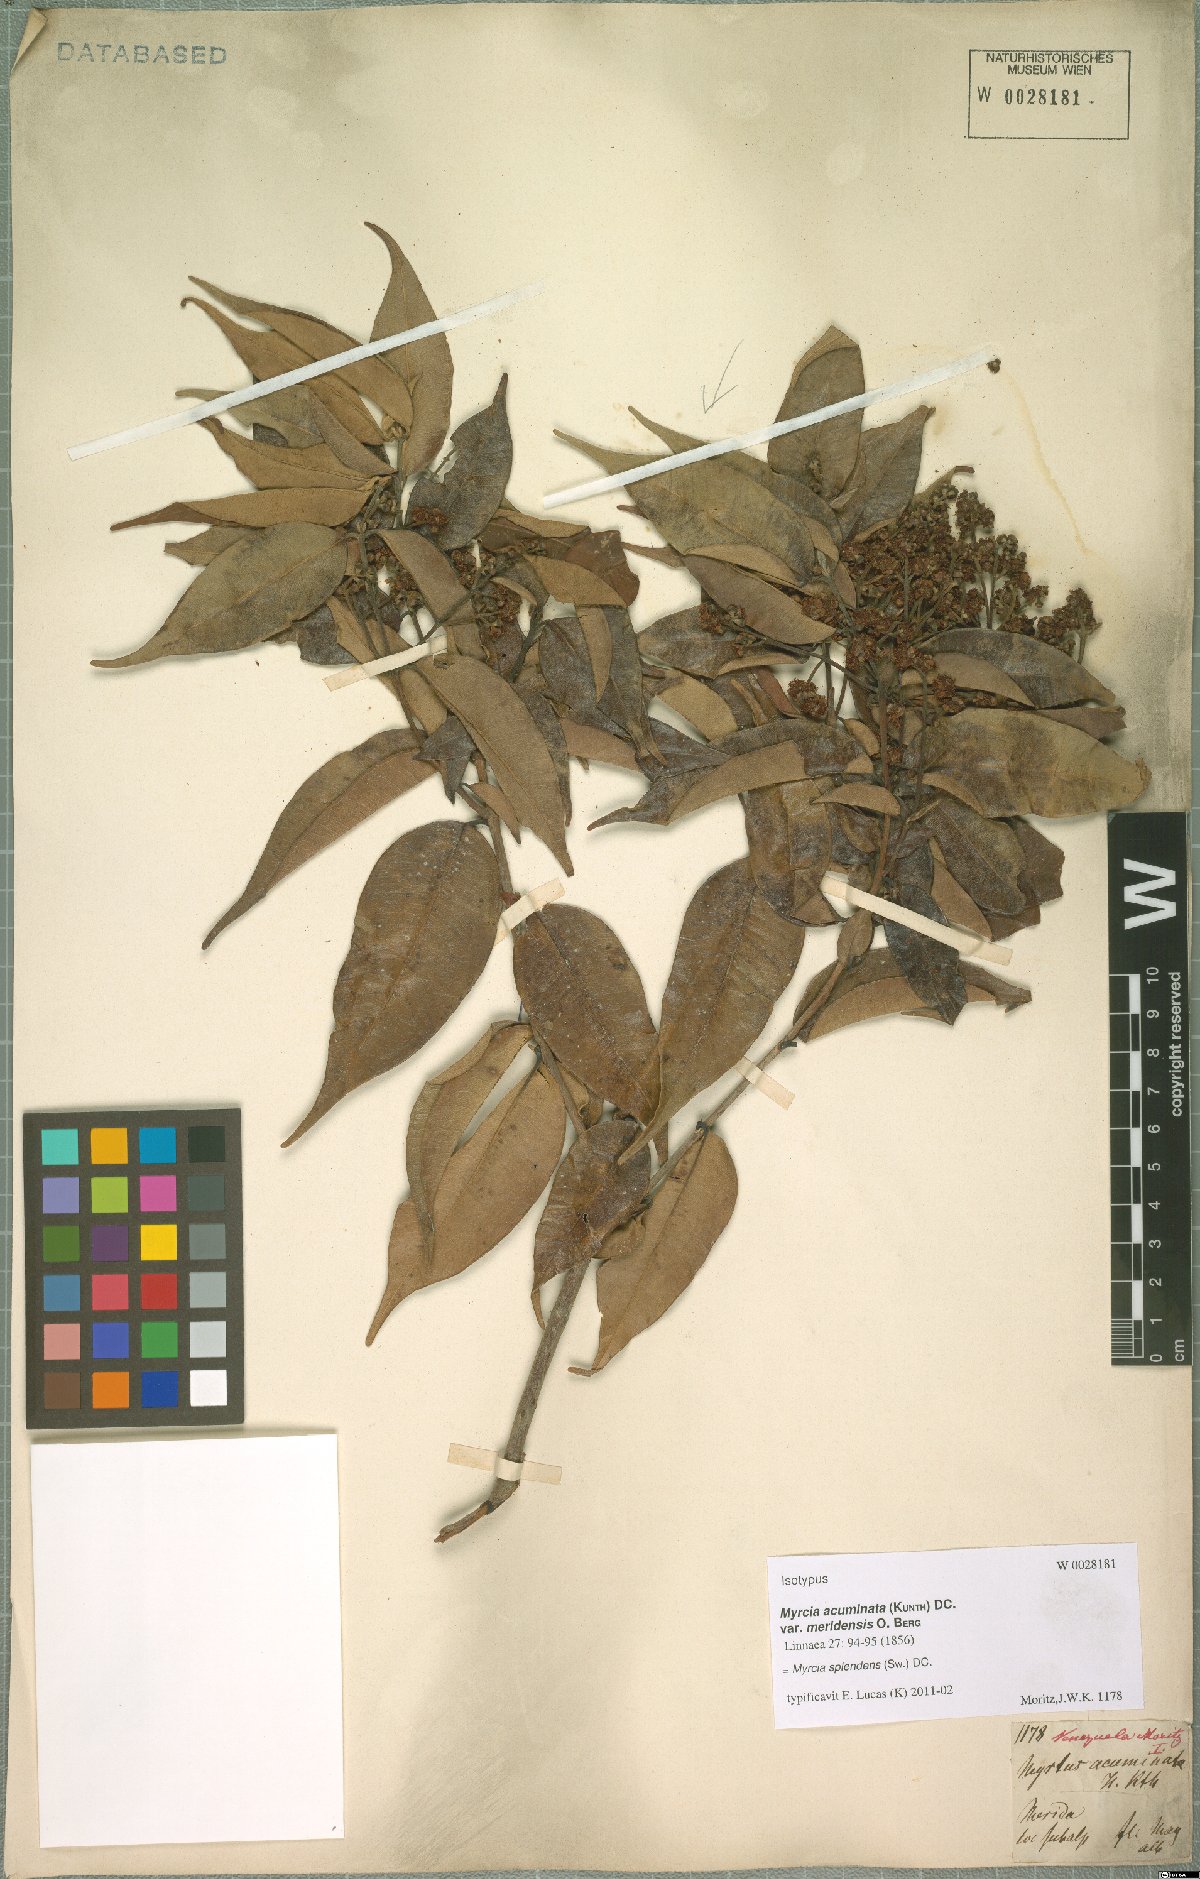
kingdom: Plantae
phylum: Tracheophyta
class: Magnoliopsida
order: Myrtales
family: Myrtaceae
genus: Myrcia
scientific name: Myrcia splendens
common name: Surinam cherry
